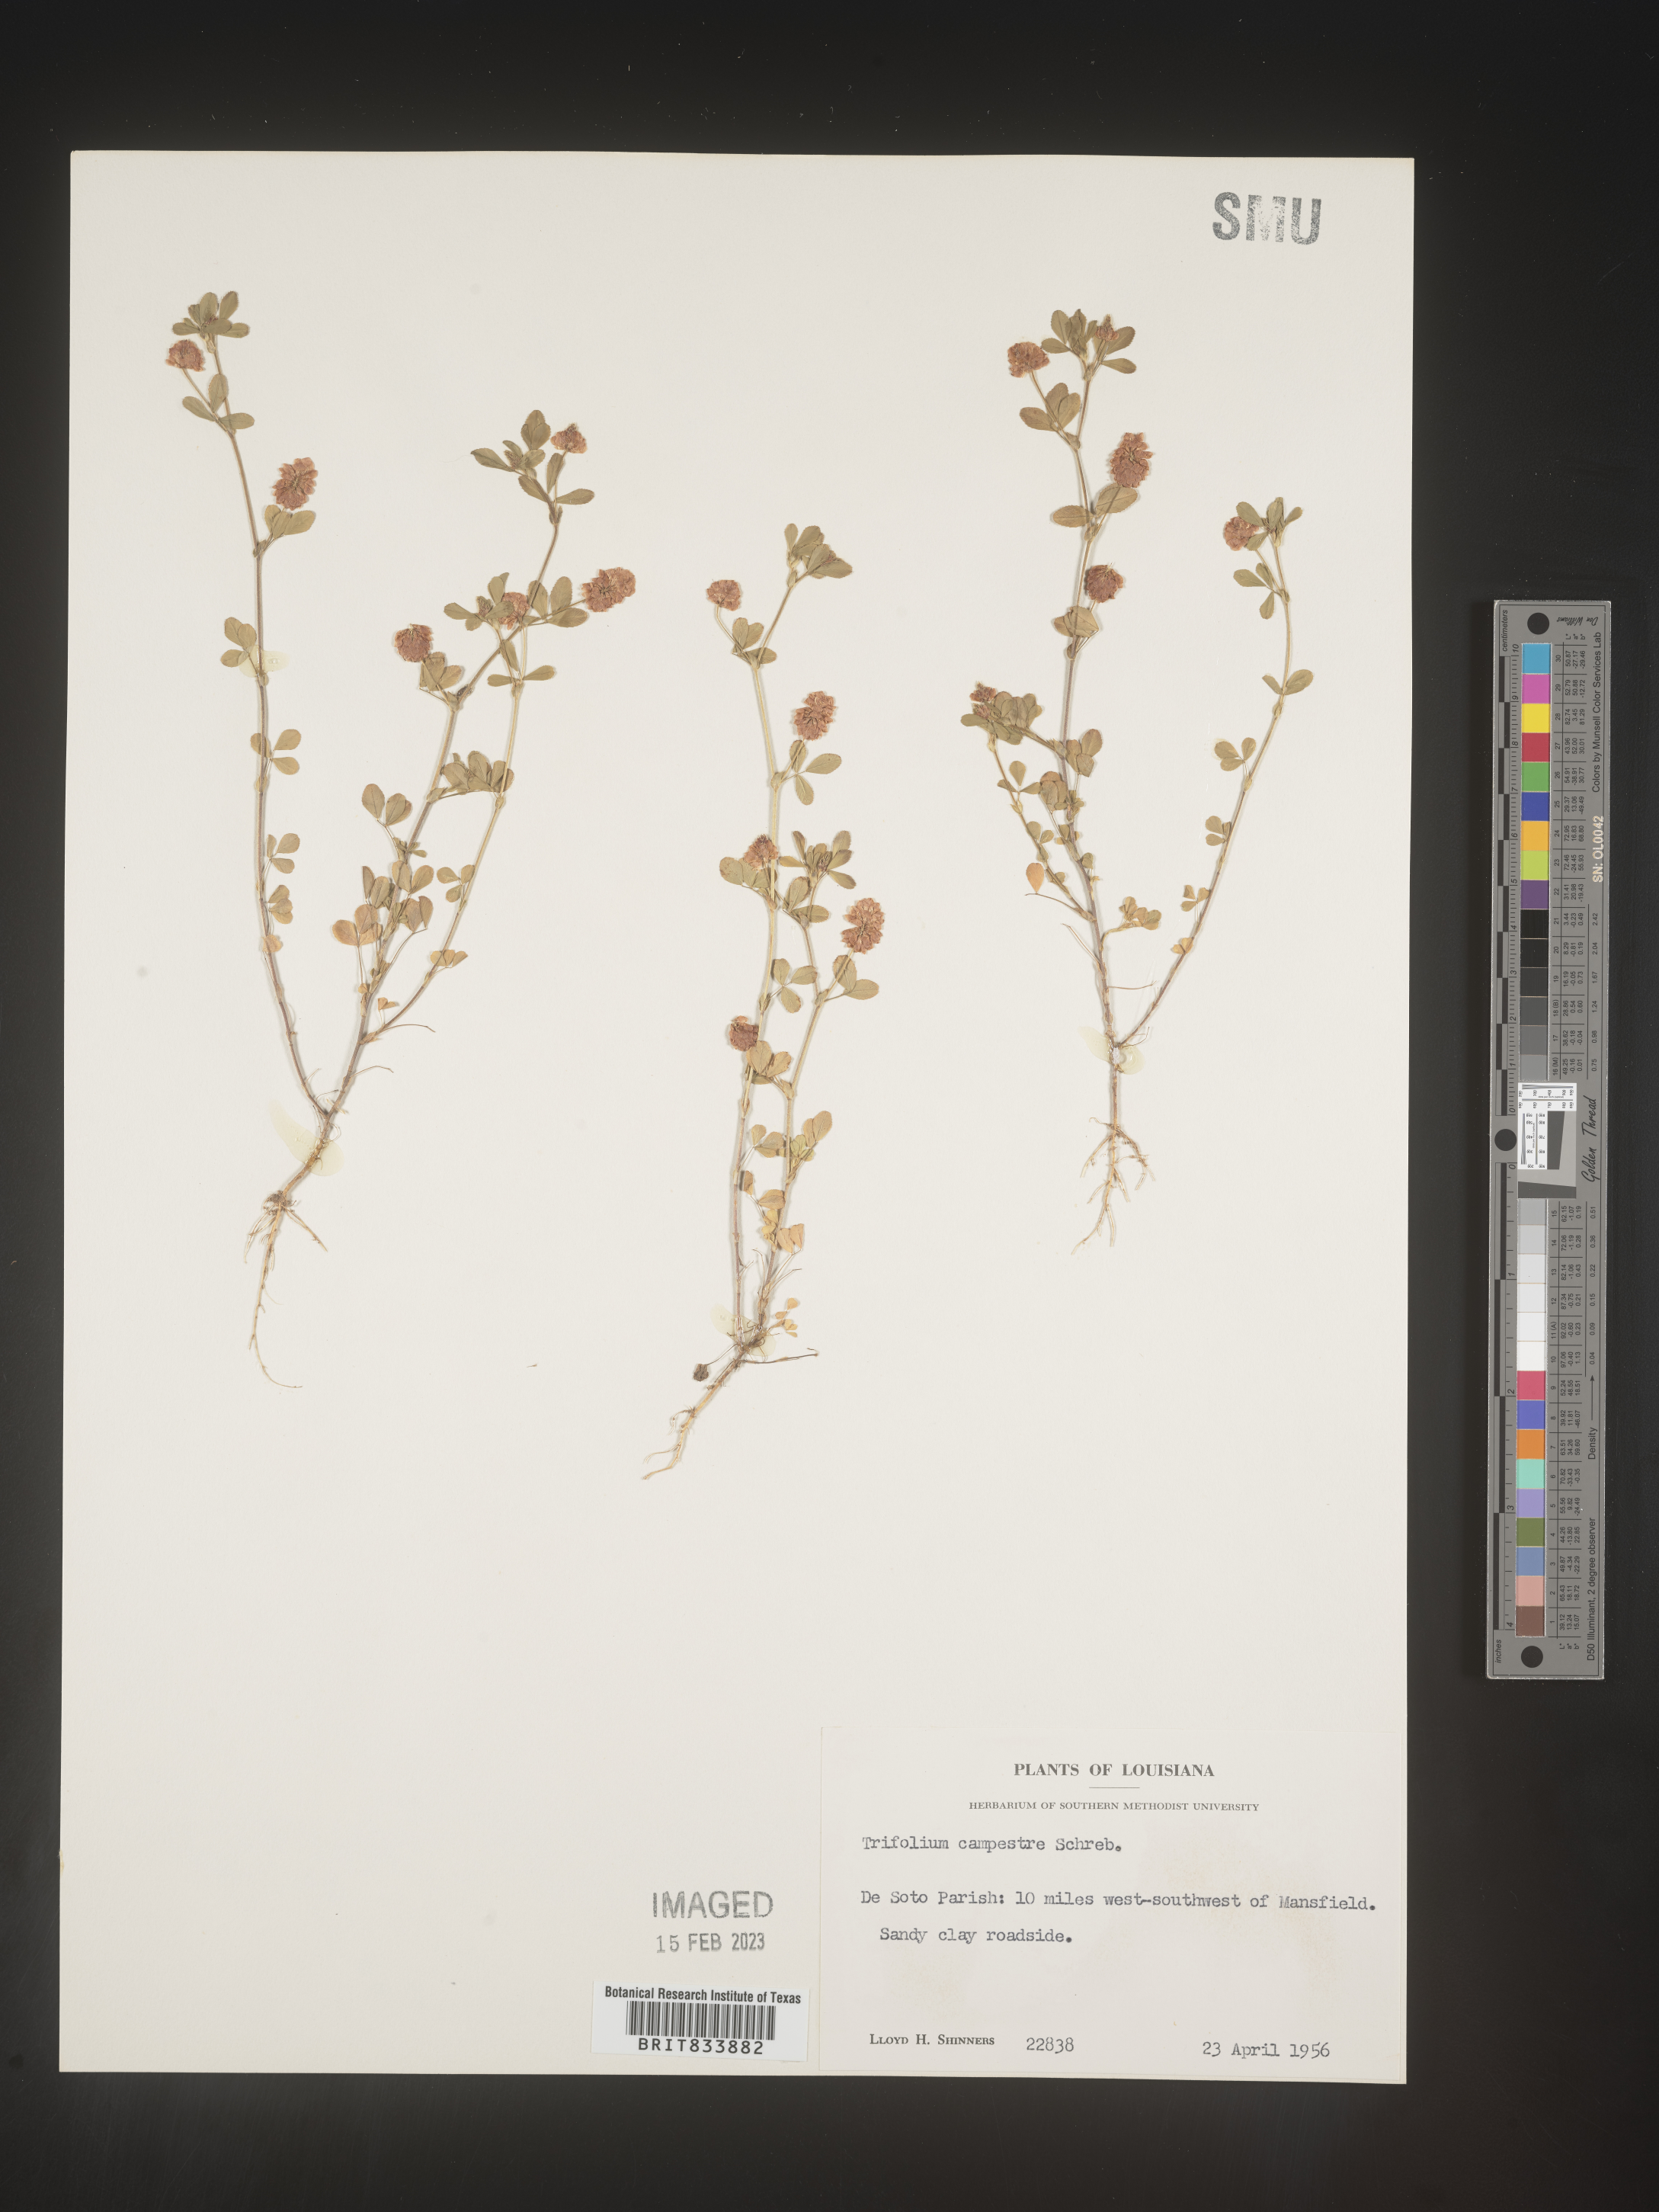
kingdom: Plantae
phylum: Tracheophyta
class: Magnoliopsida
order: Fabales
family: Fabaceae
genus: Trifolium
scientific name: Trifolium campestre
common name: Field clover
